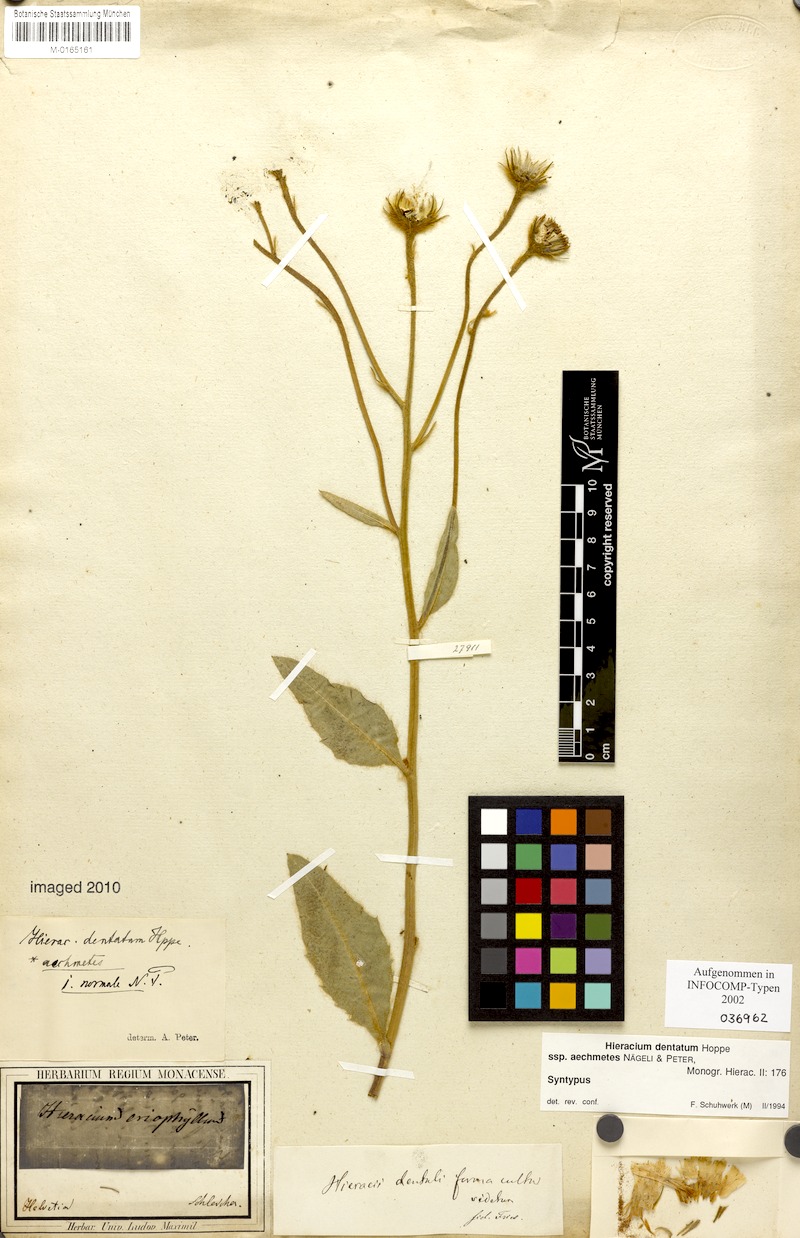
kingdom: Plantae
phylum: Tracheophyta
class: Magnoliopsida
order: Asterales
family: Asteraceae
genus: Hieracium
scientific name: Hieracium dentatum
